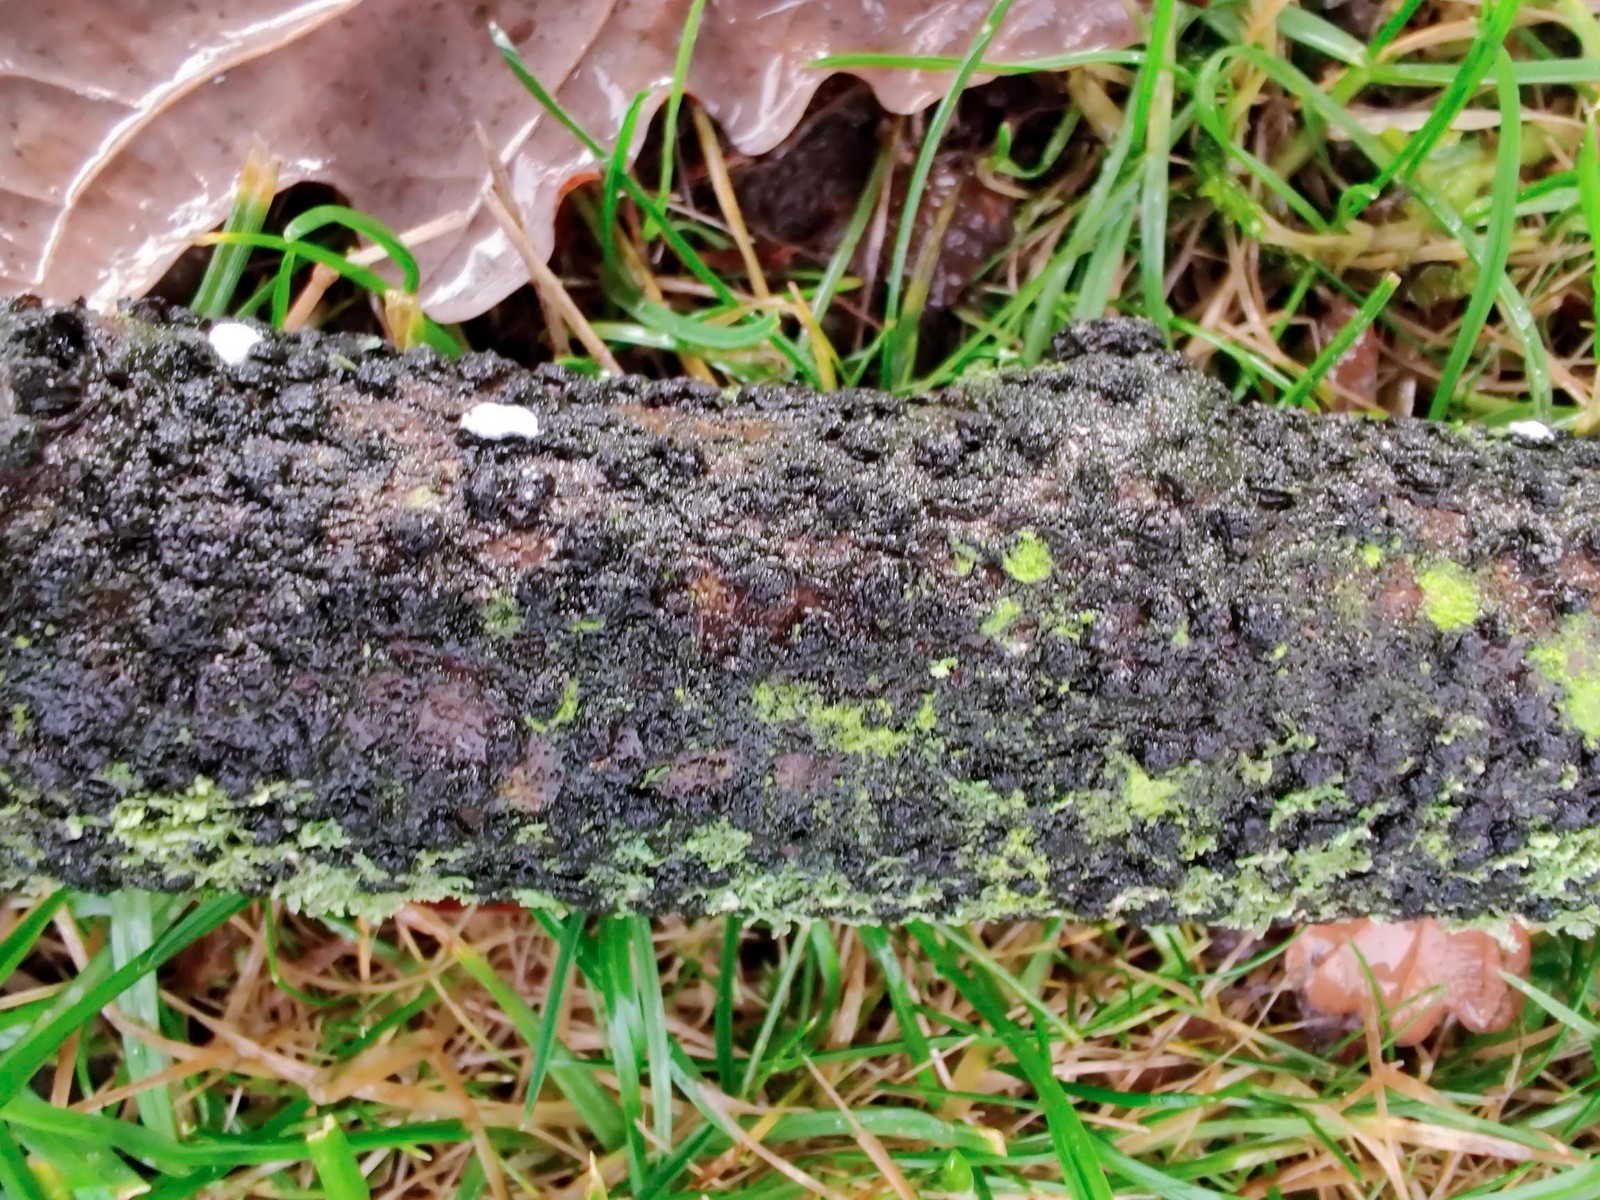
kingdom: Fungi
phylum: Ascomycota
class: Sordariomycetes
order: Xylariales
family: Diatrypaceae
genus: Diatrypella
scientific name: Diatrypella quercina
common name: ege-kulskorpe
